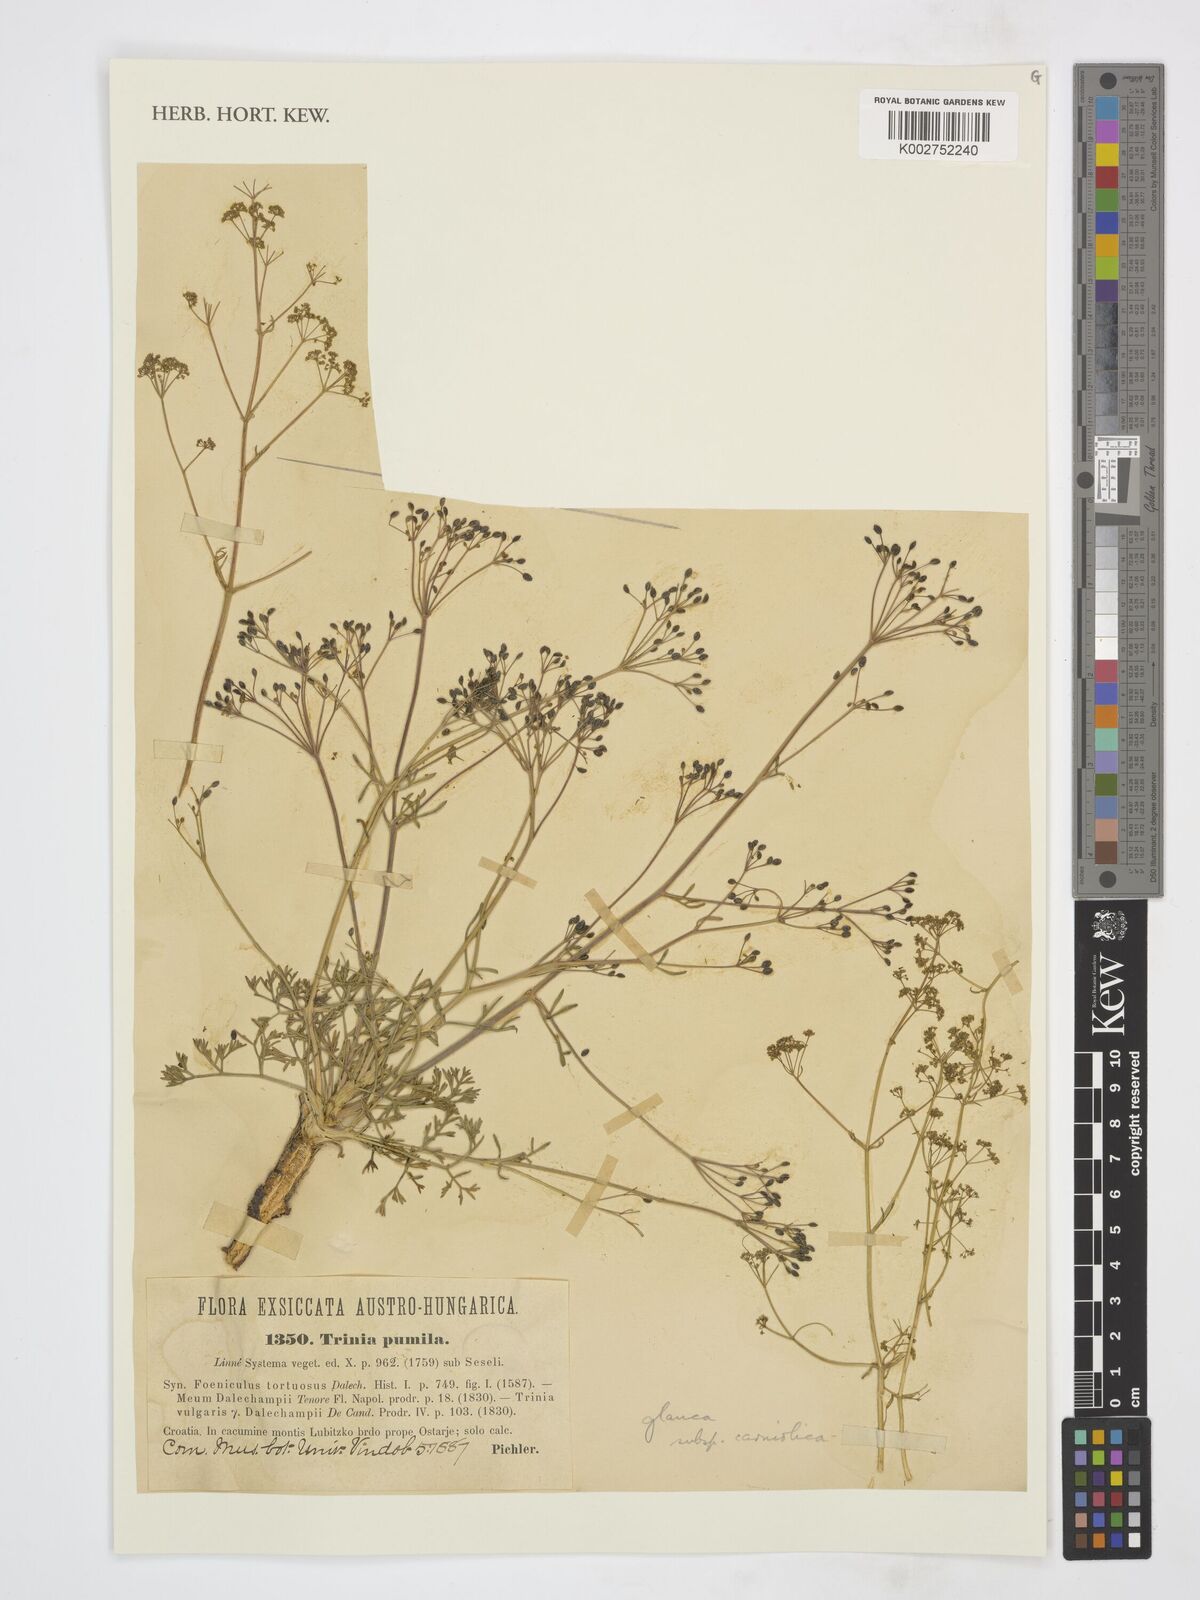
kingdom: Plantae
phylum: Tracheophyta
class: Magnoliopsida
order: Apiales
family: Apiaceae
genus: Trinia
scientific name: Trinia glauca
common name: Honewort
